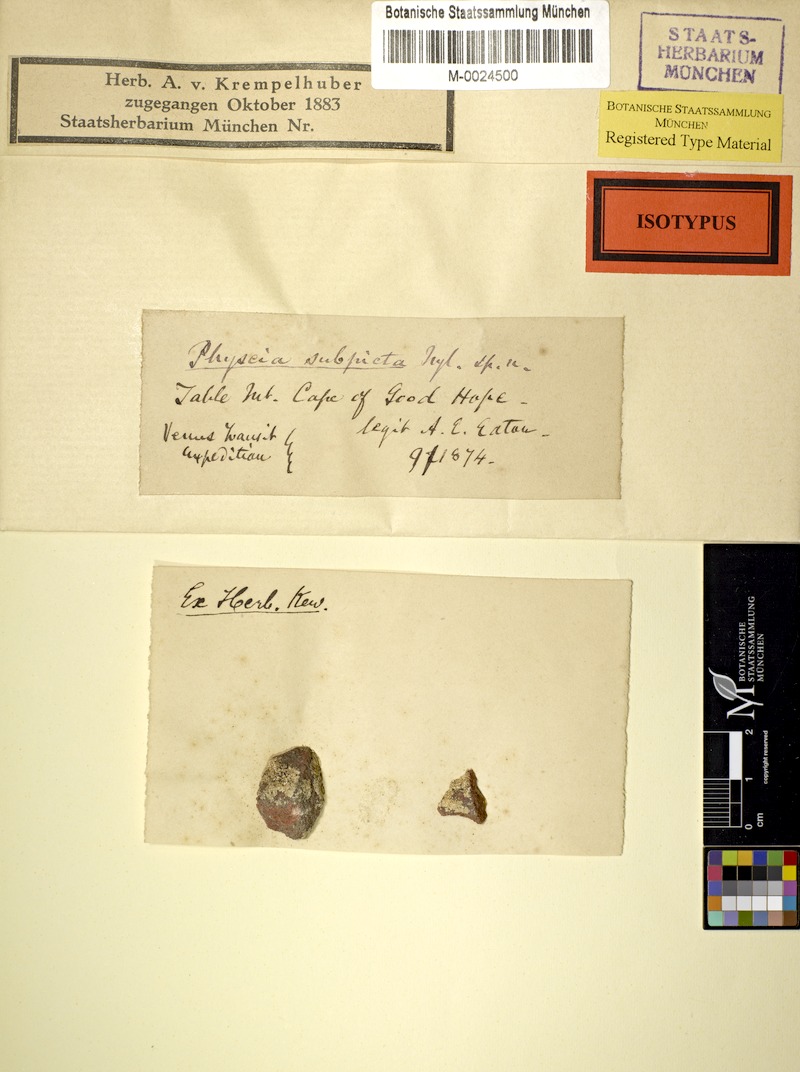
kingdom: Fungi
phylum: Ascomycota
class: Lecanoromycetes
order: Caliciales
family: Caliciaceae
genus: Dirinaria
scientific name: Dirinaria
